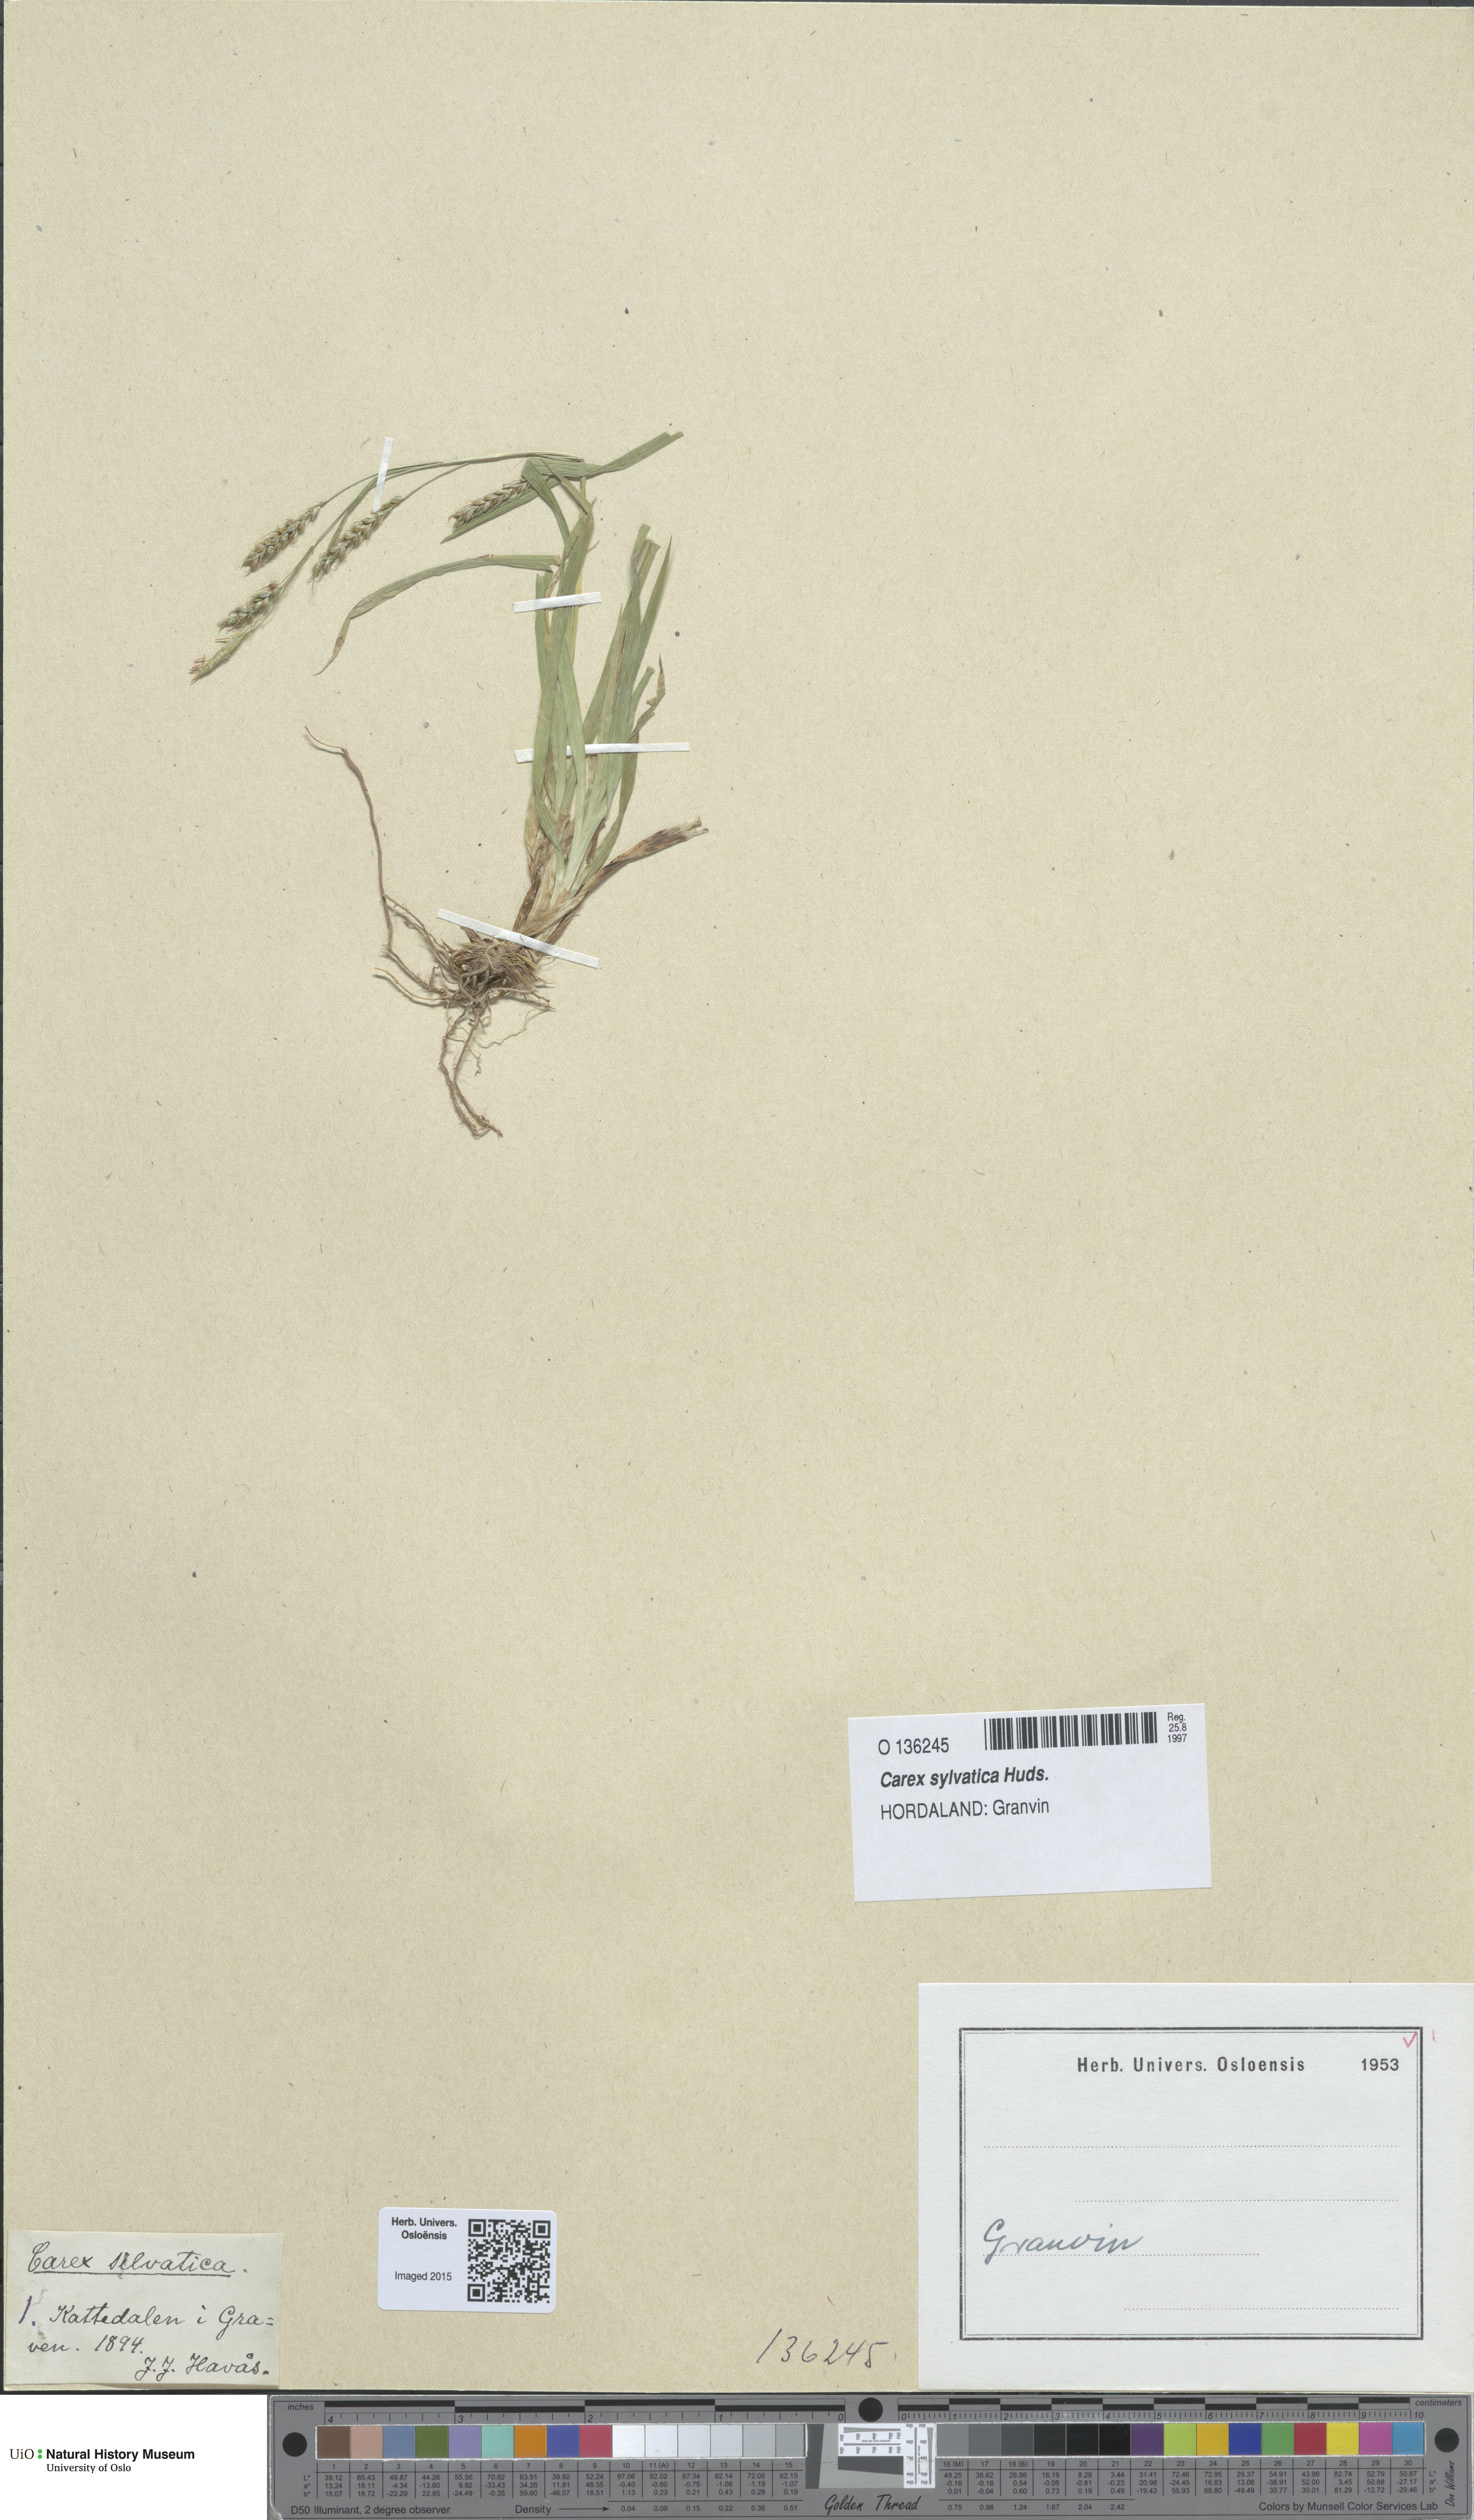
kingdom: Plantae
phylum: Tracheophyta
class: Liliopsida
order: Poales
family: Cyperaceae
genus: Carex
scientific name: Carex sylvatica
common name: Wood-sedge
